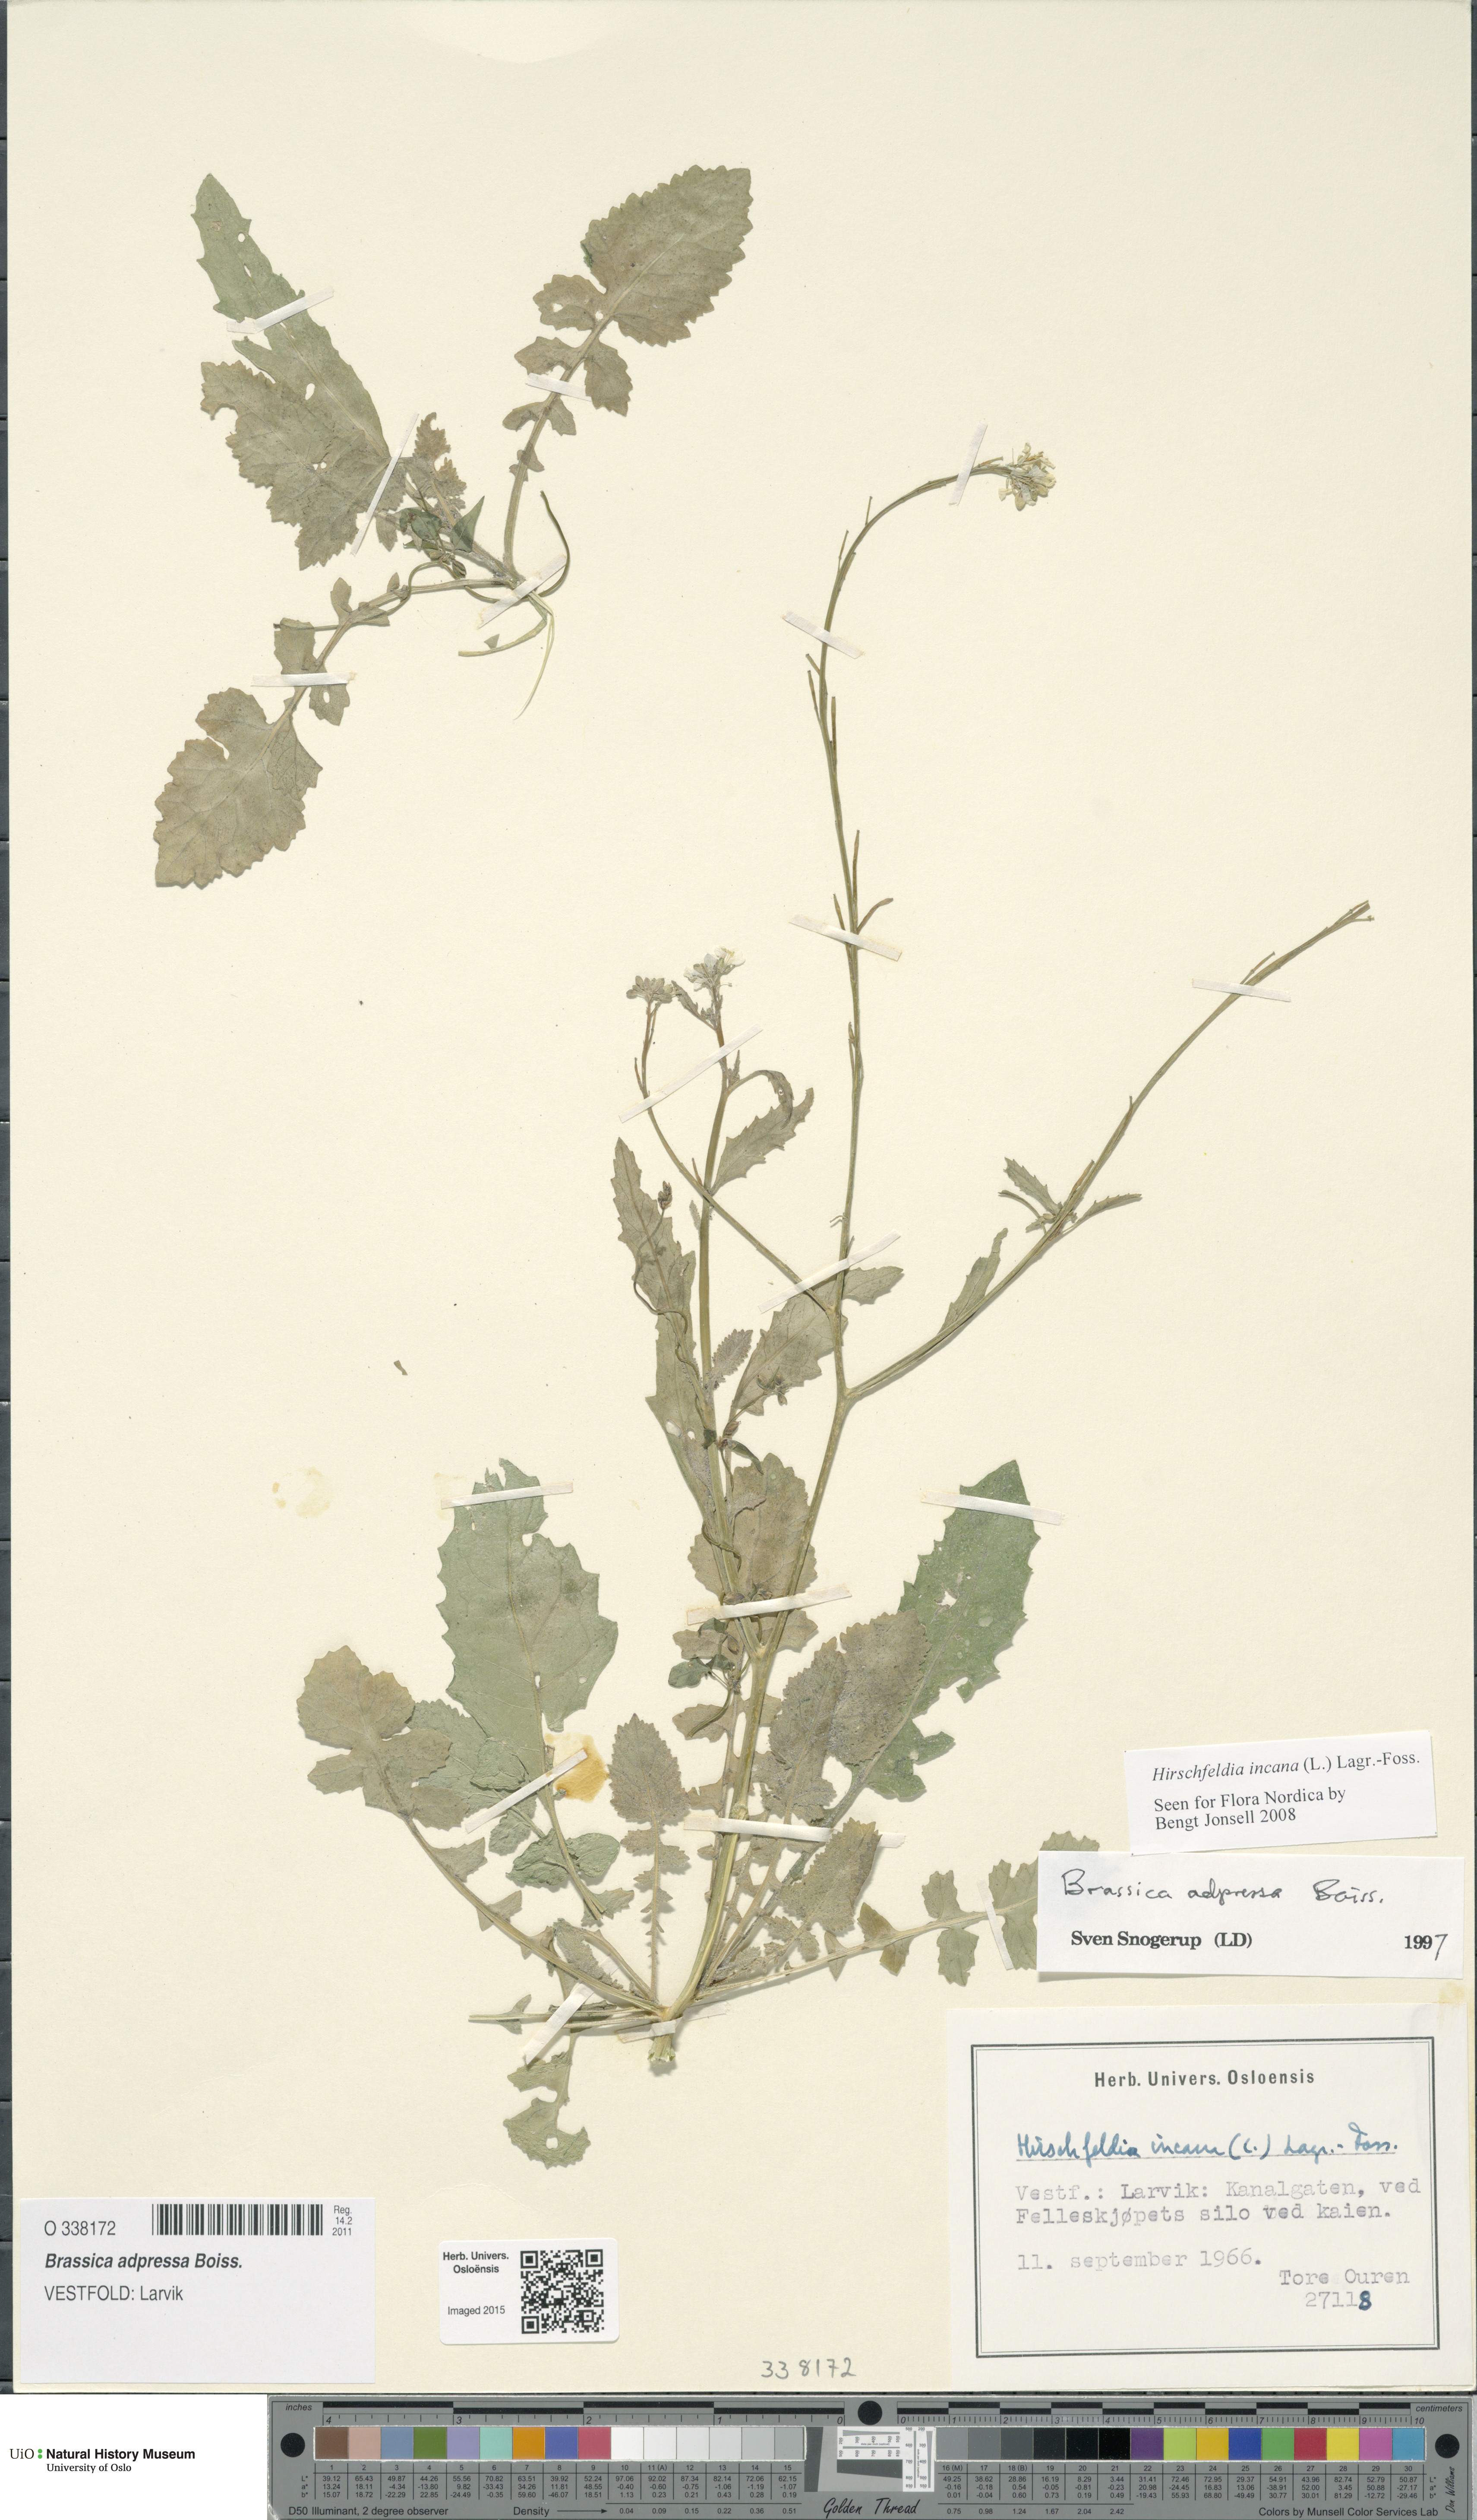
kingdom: Plantae
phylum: Tracheophyta
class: Magnoliopsida
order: Brassicales
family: Brassicaceae
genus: Hirschfeldia
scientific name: Hirschfeldia incana
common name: Hoary mustard
